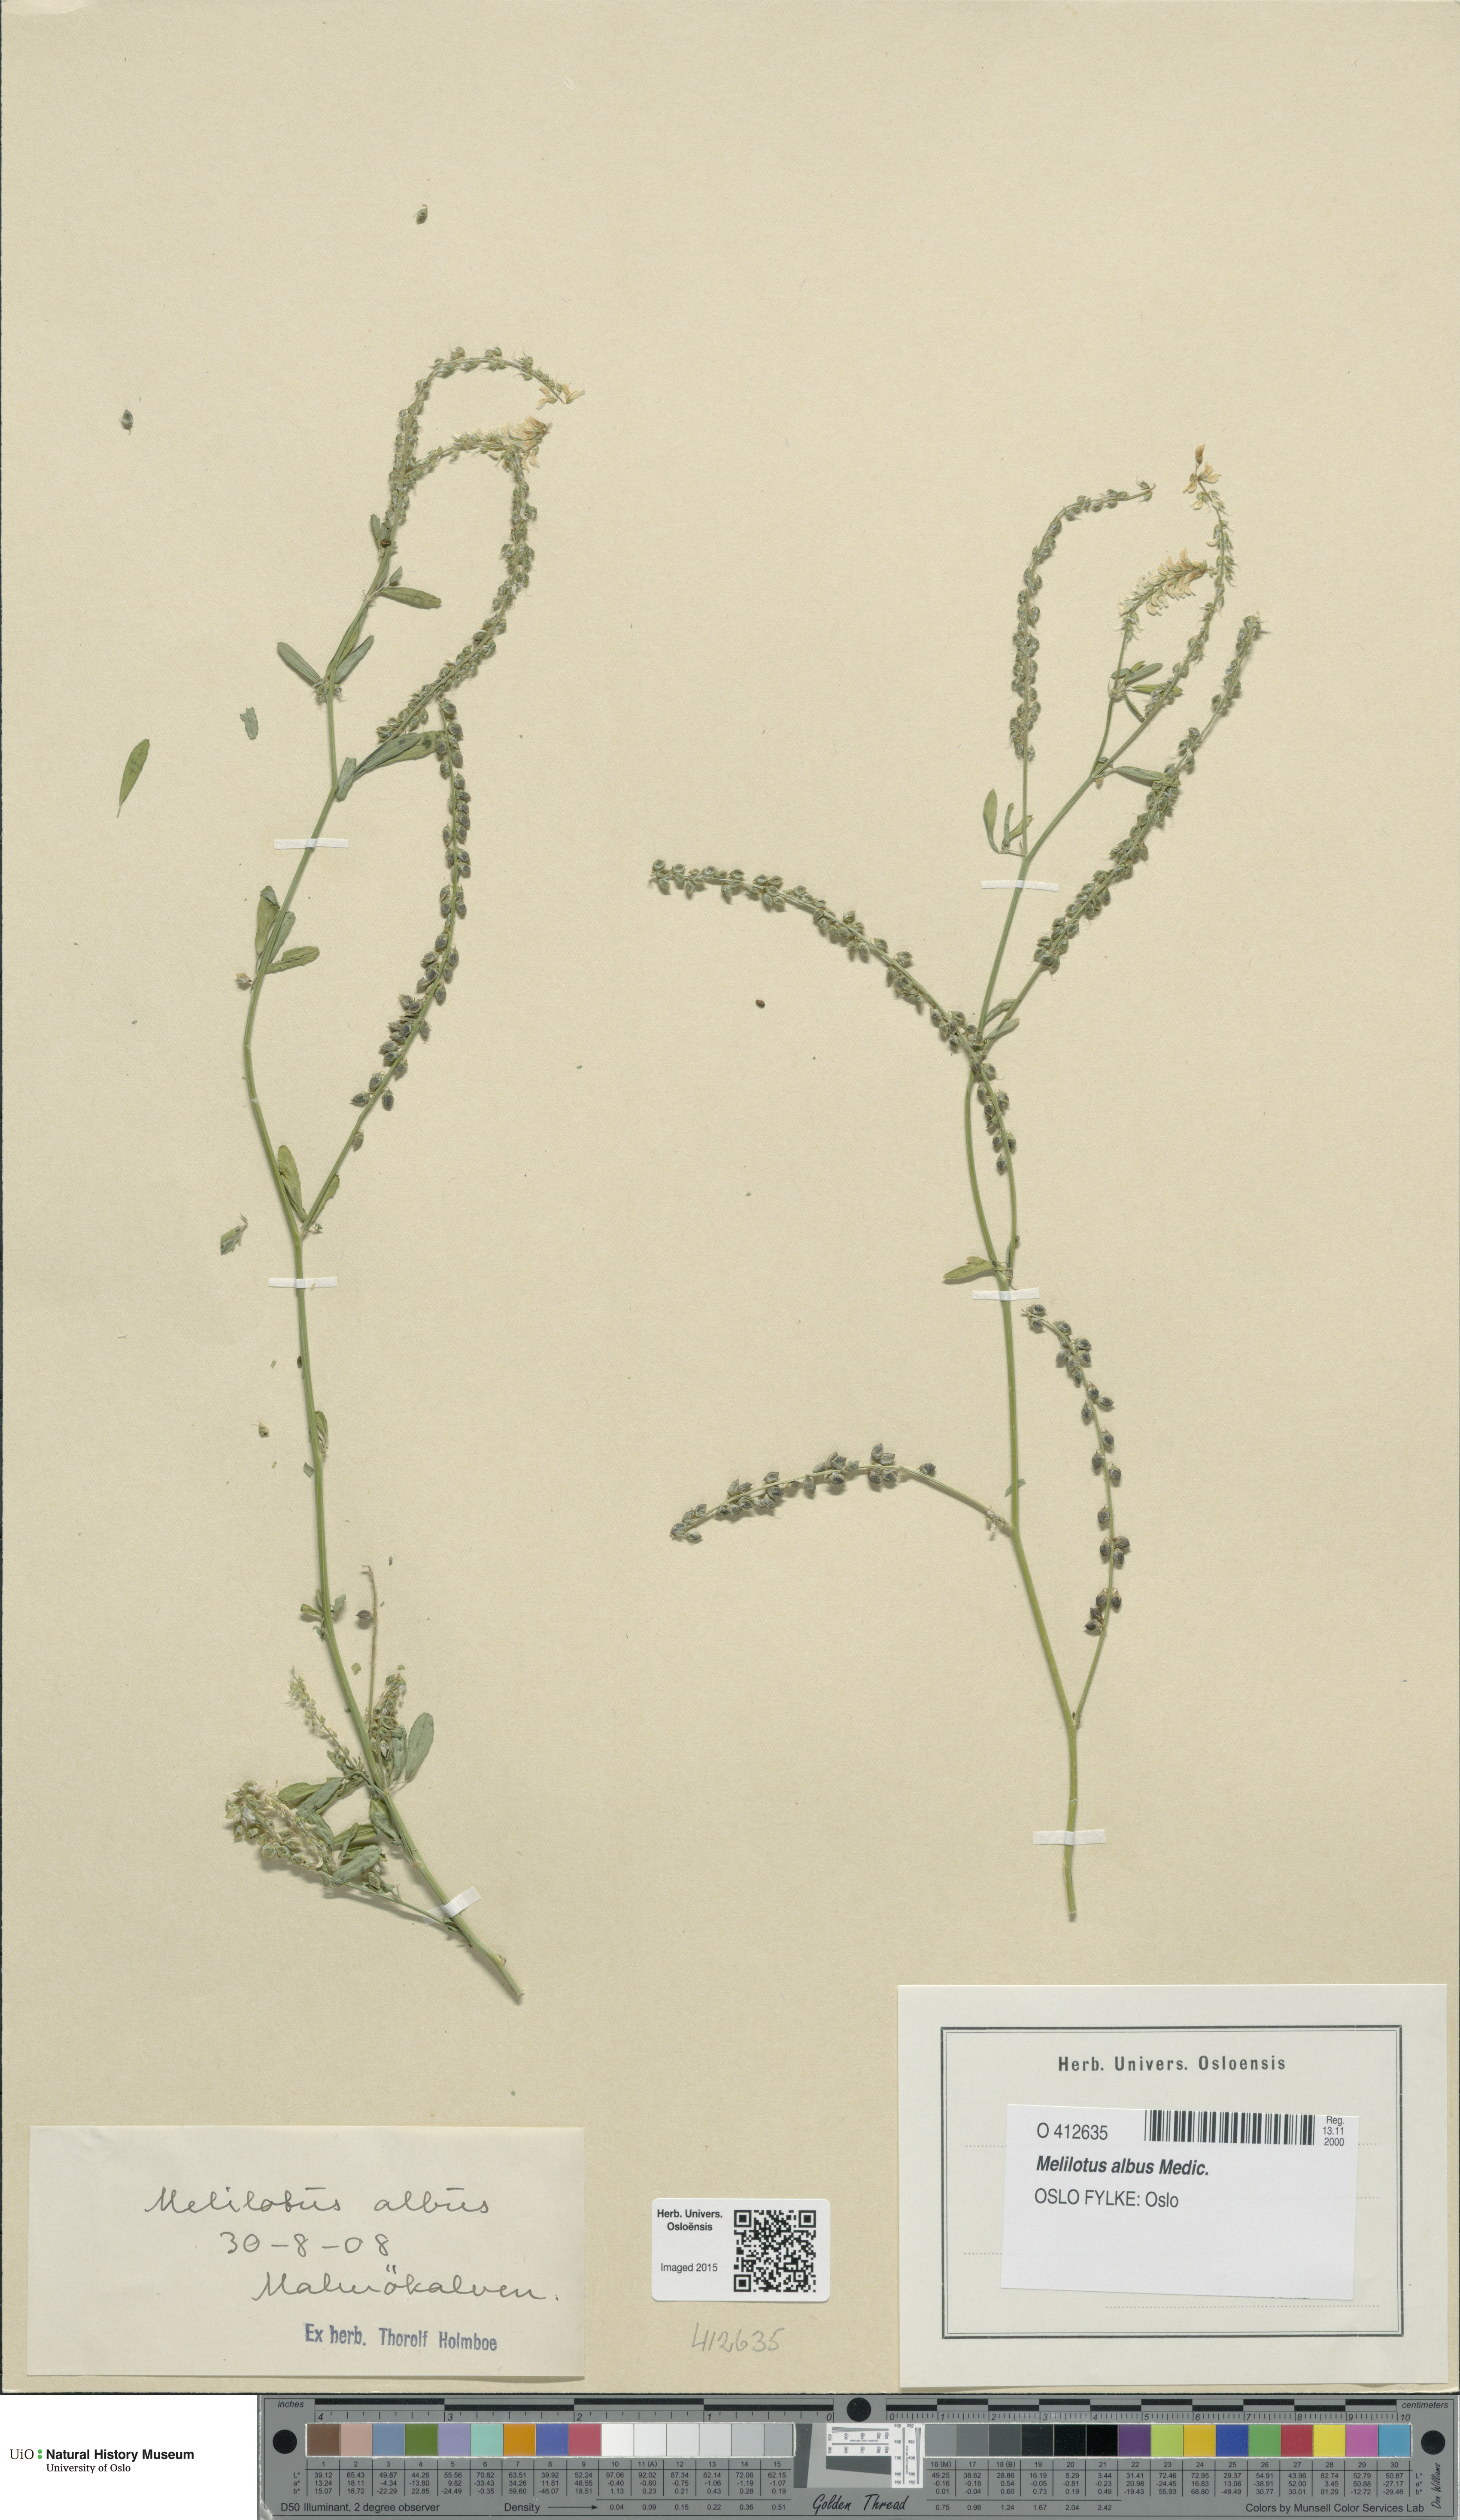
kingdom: Plantae
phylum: Tracheophyta
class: Magnoliopsida
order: Fabales
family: Fabaceae
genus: Melilotus
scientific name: Melilotus albus
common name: White melilot
